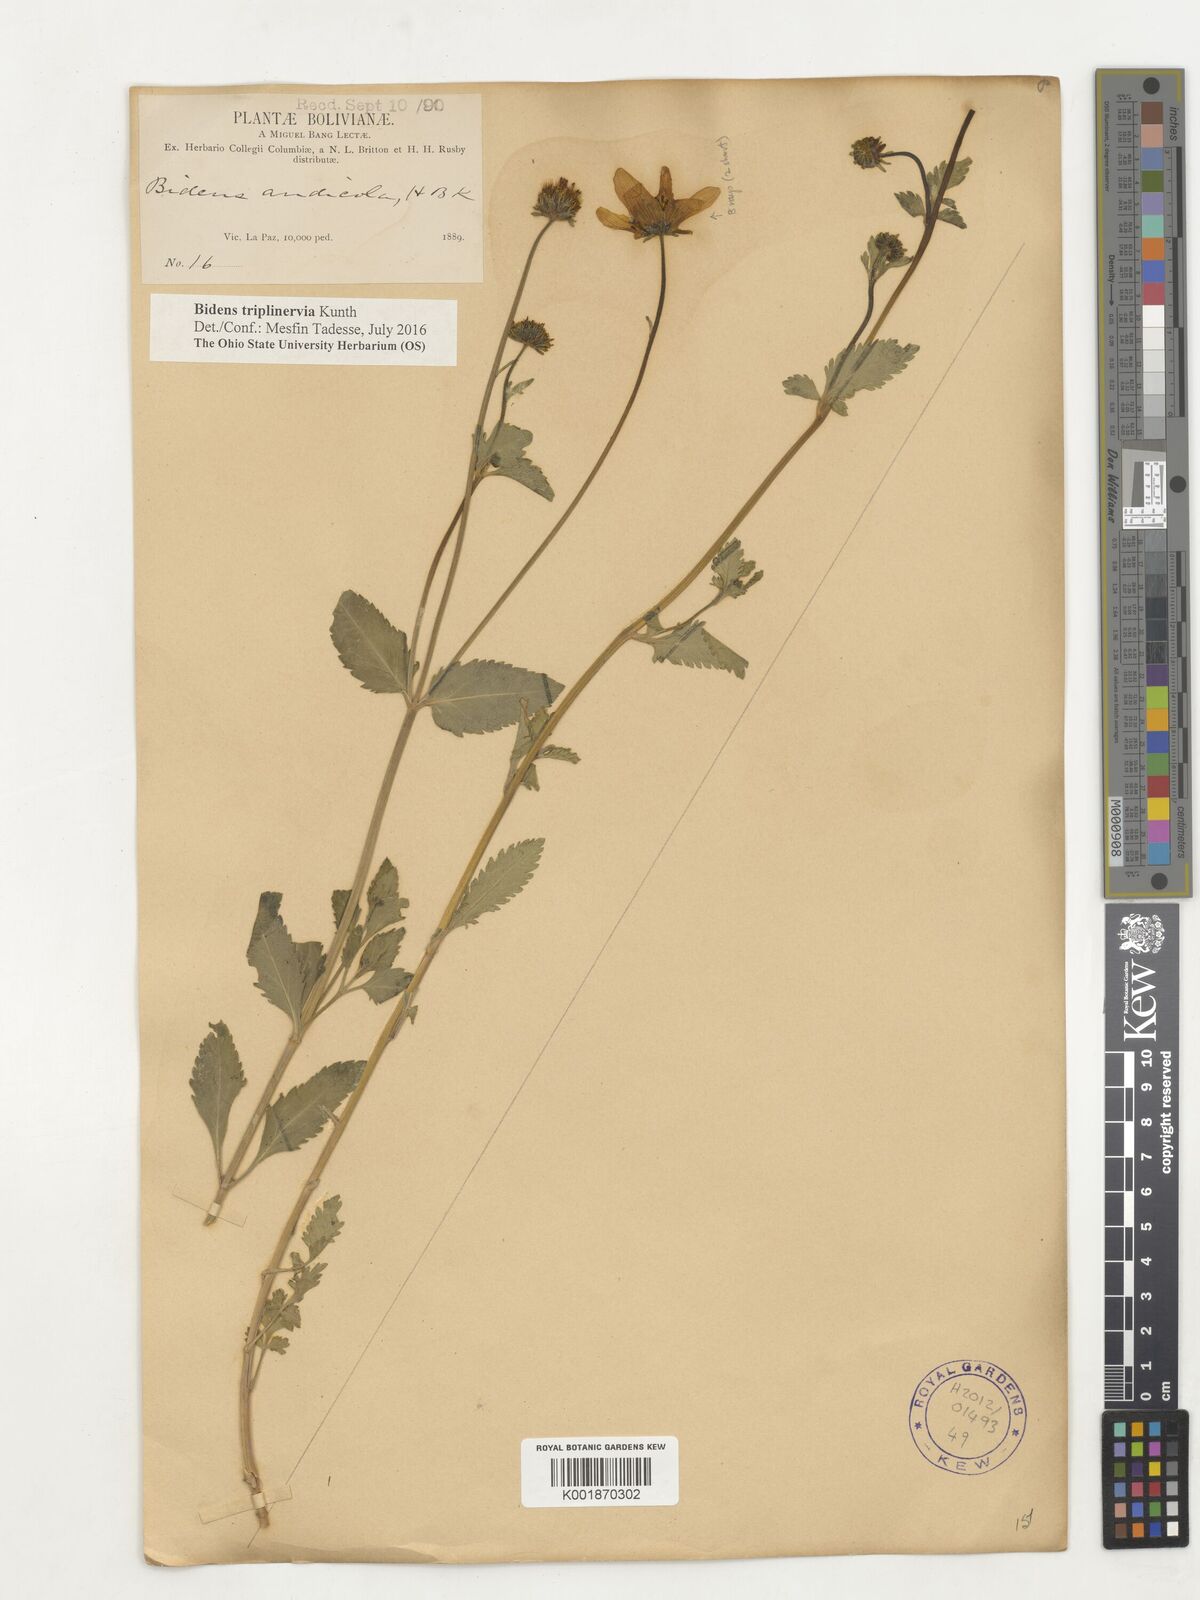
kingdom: Plantae
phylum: Tracheophyta
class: Magnoliopsida
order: Asterales
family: Asteraceae
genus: Bidens
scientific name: Bidens triplinervia
